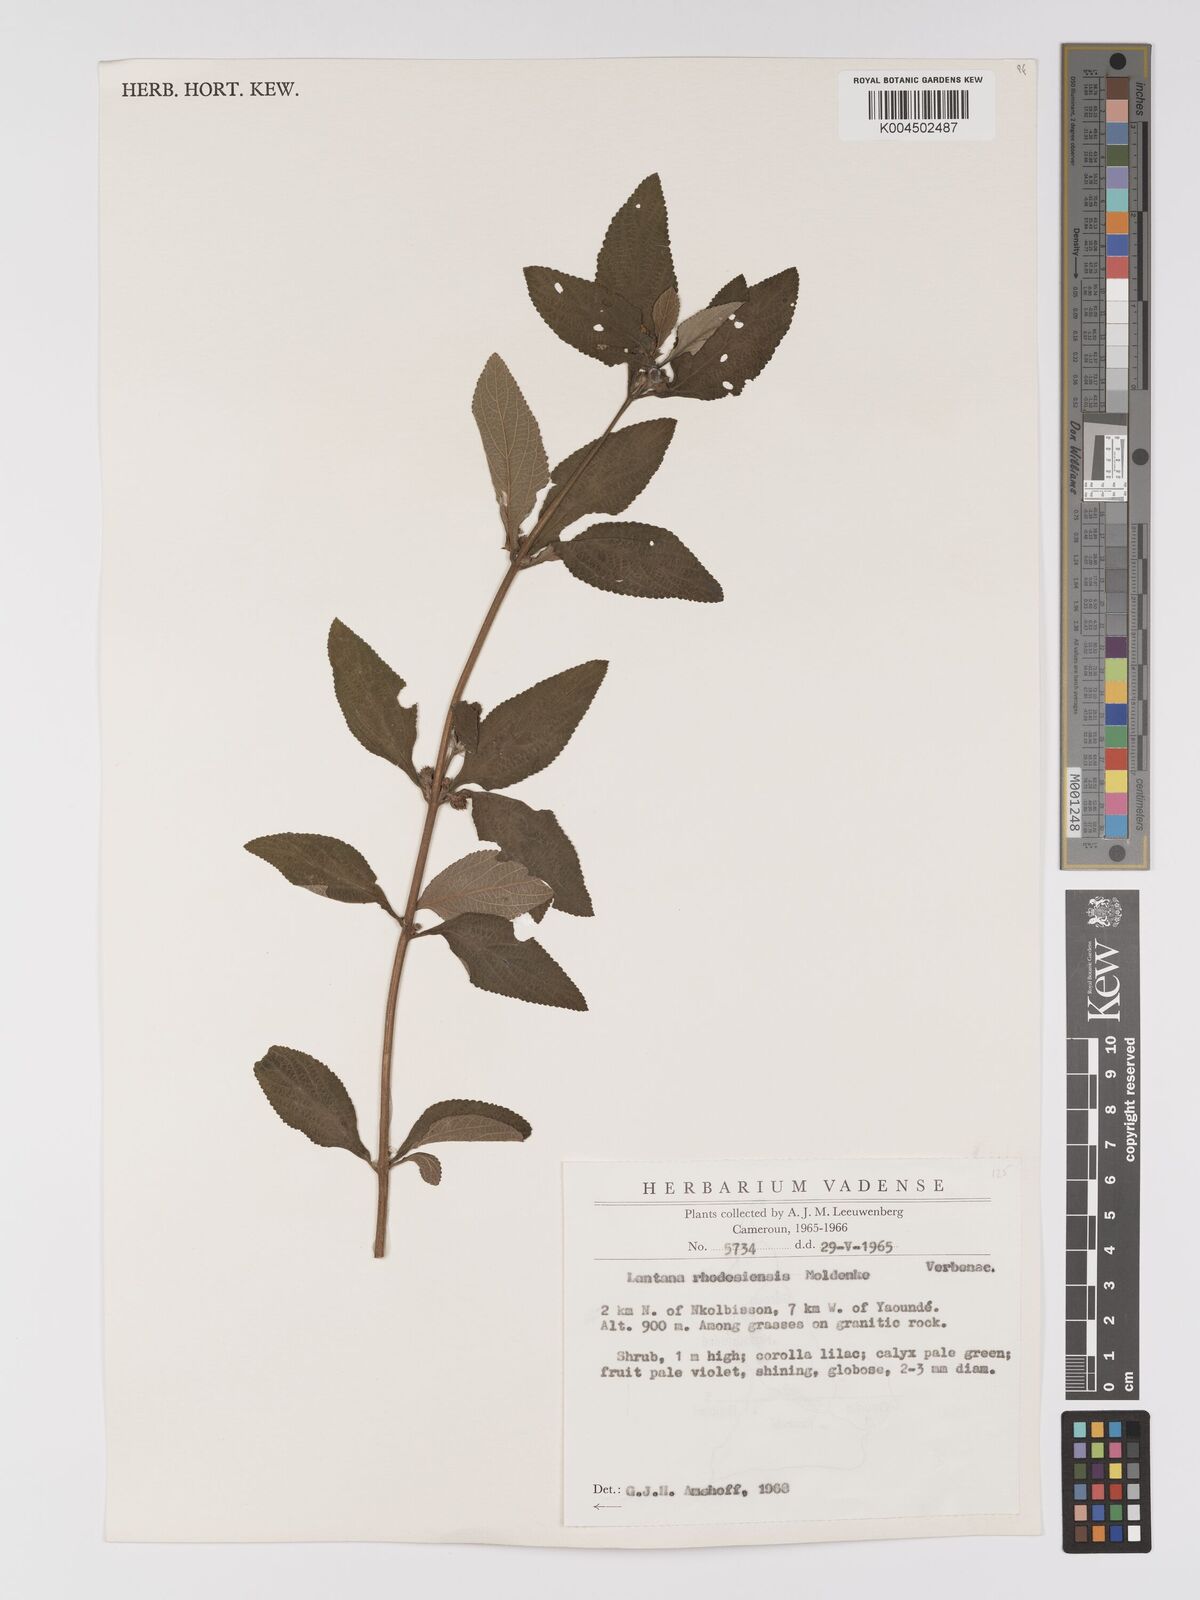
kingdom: Plantae
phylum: Tracheophyta
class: Magnoliopsida
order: Lamiales
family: Verbenaceae
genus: Lantana
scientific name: Lantana ukambensis
